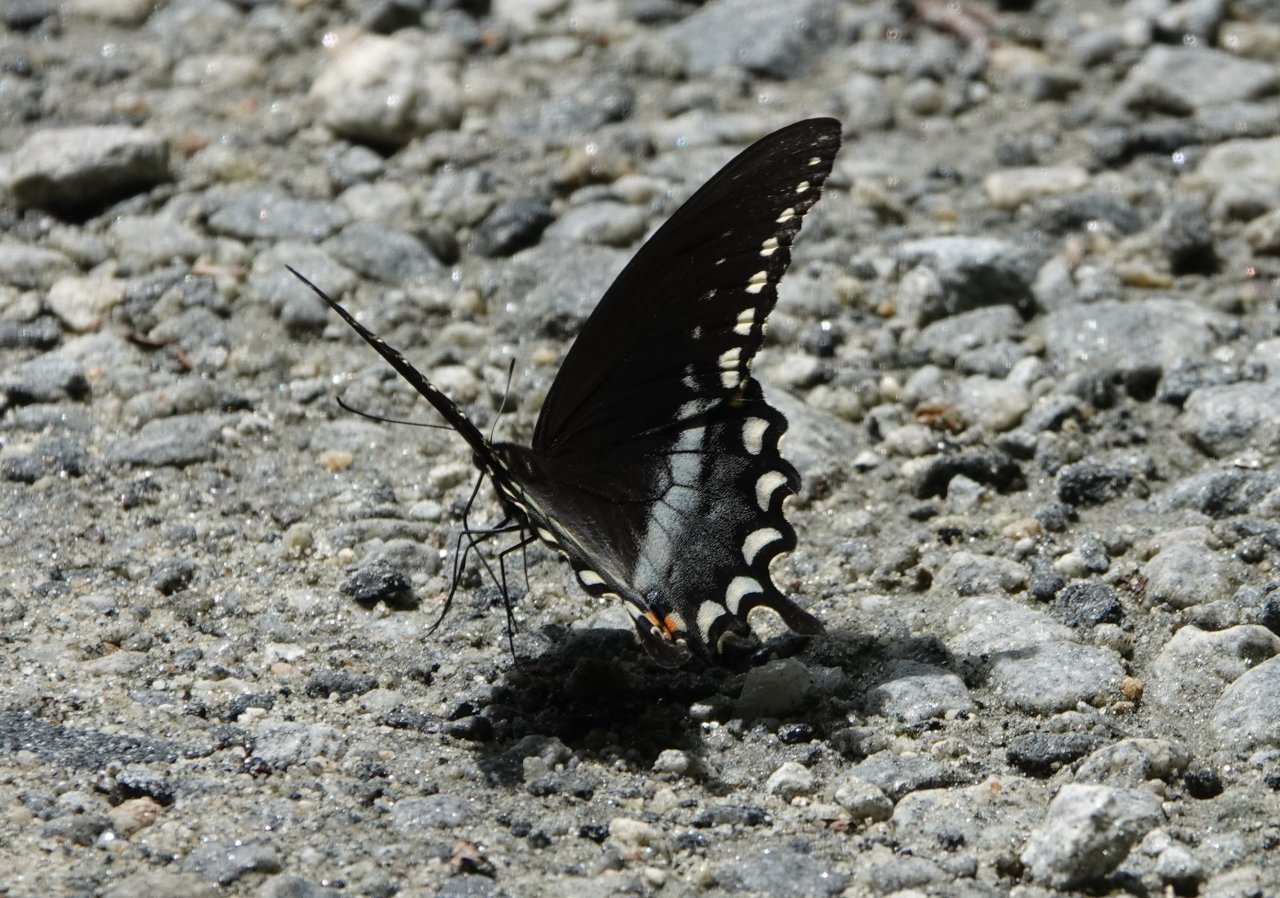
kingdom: Animalia
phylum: Arthropoda
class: Insecta
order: Lepidoptera
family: Papilionidae
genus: Pterourus
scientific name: Pterourus troilus
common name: Spicebush Swallowtail
